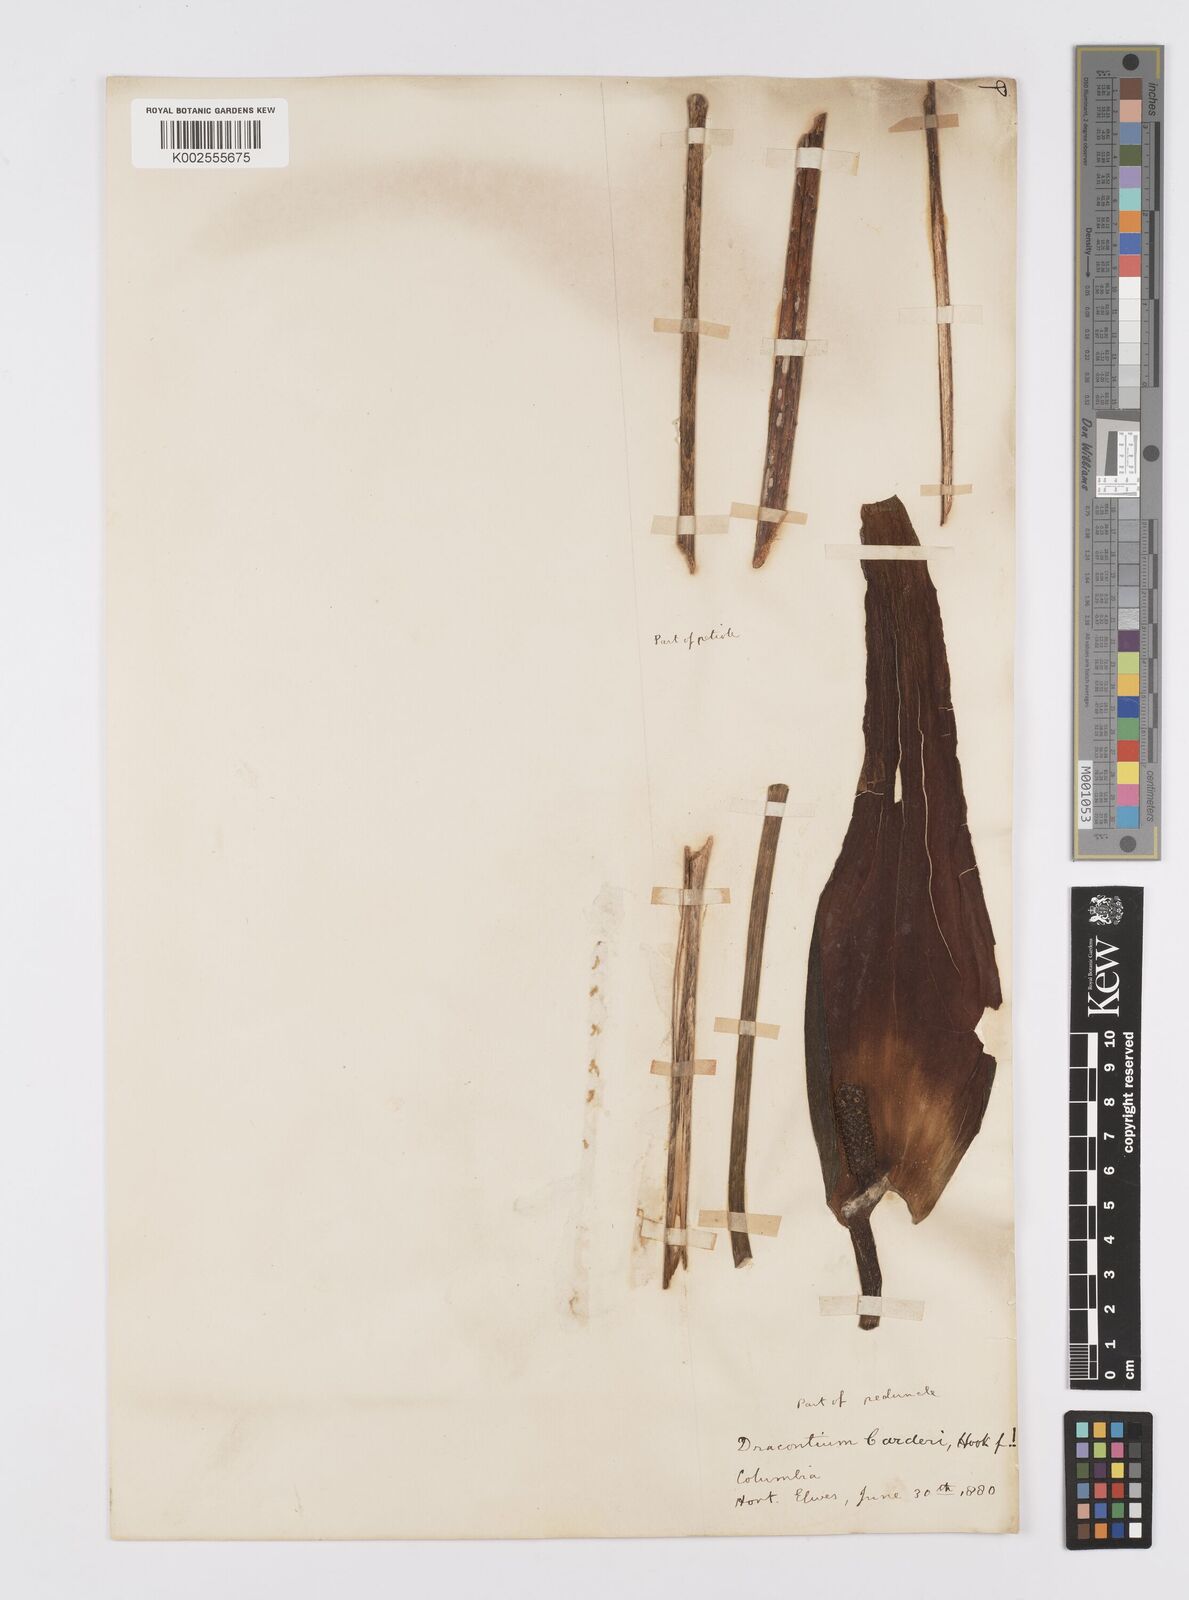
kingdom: Plantae
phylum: Tracheophyta
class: Liliopsida
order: Alismatales
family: Araceae
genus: Dracontium
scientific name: Dracontium spruceanum
